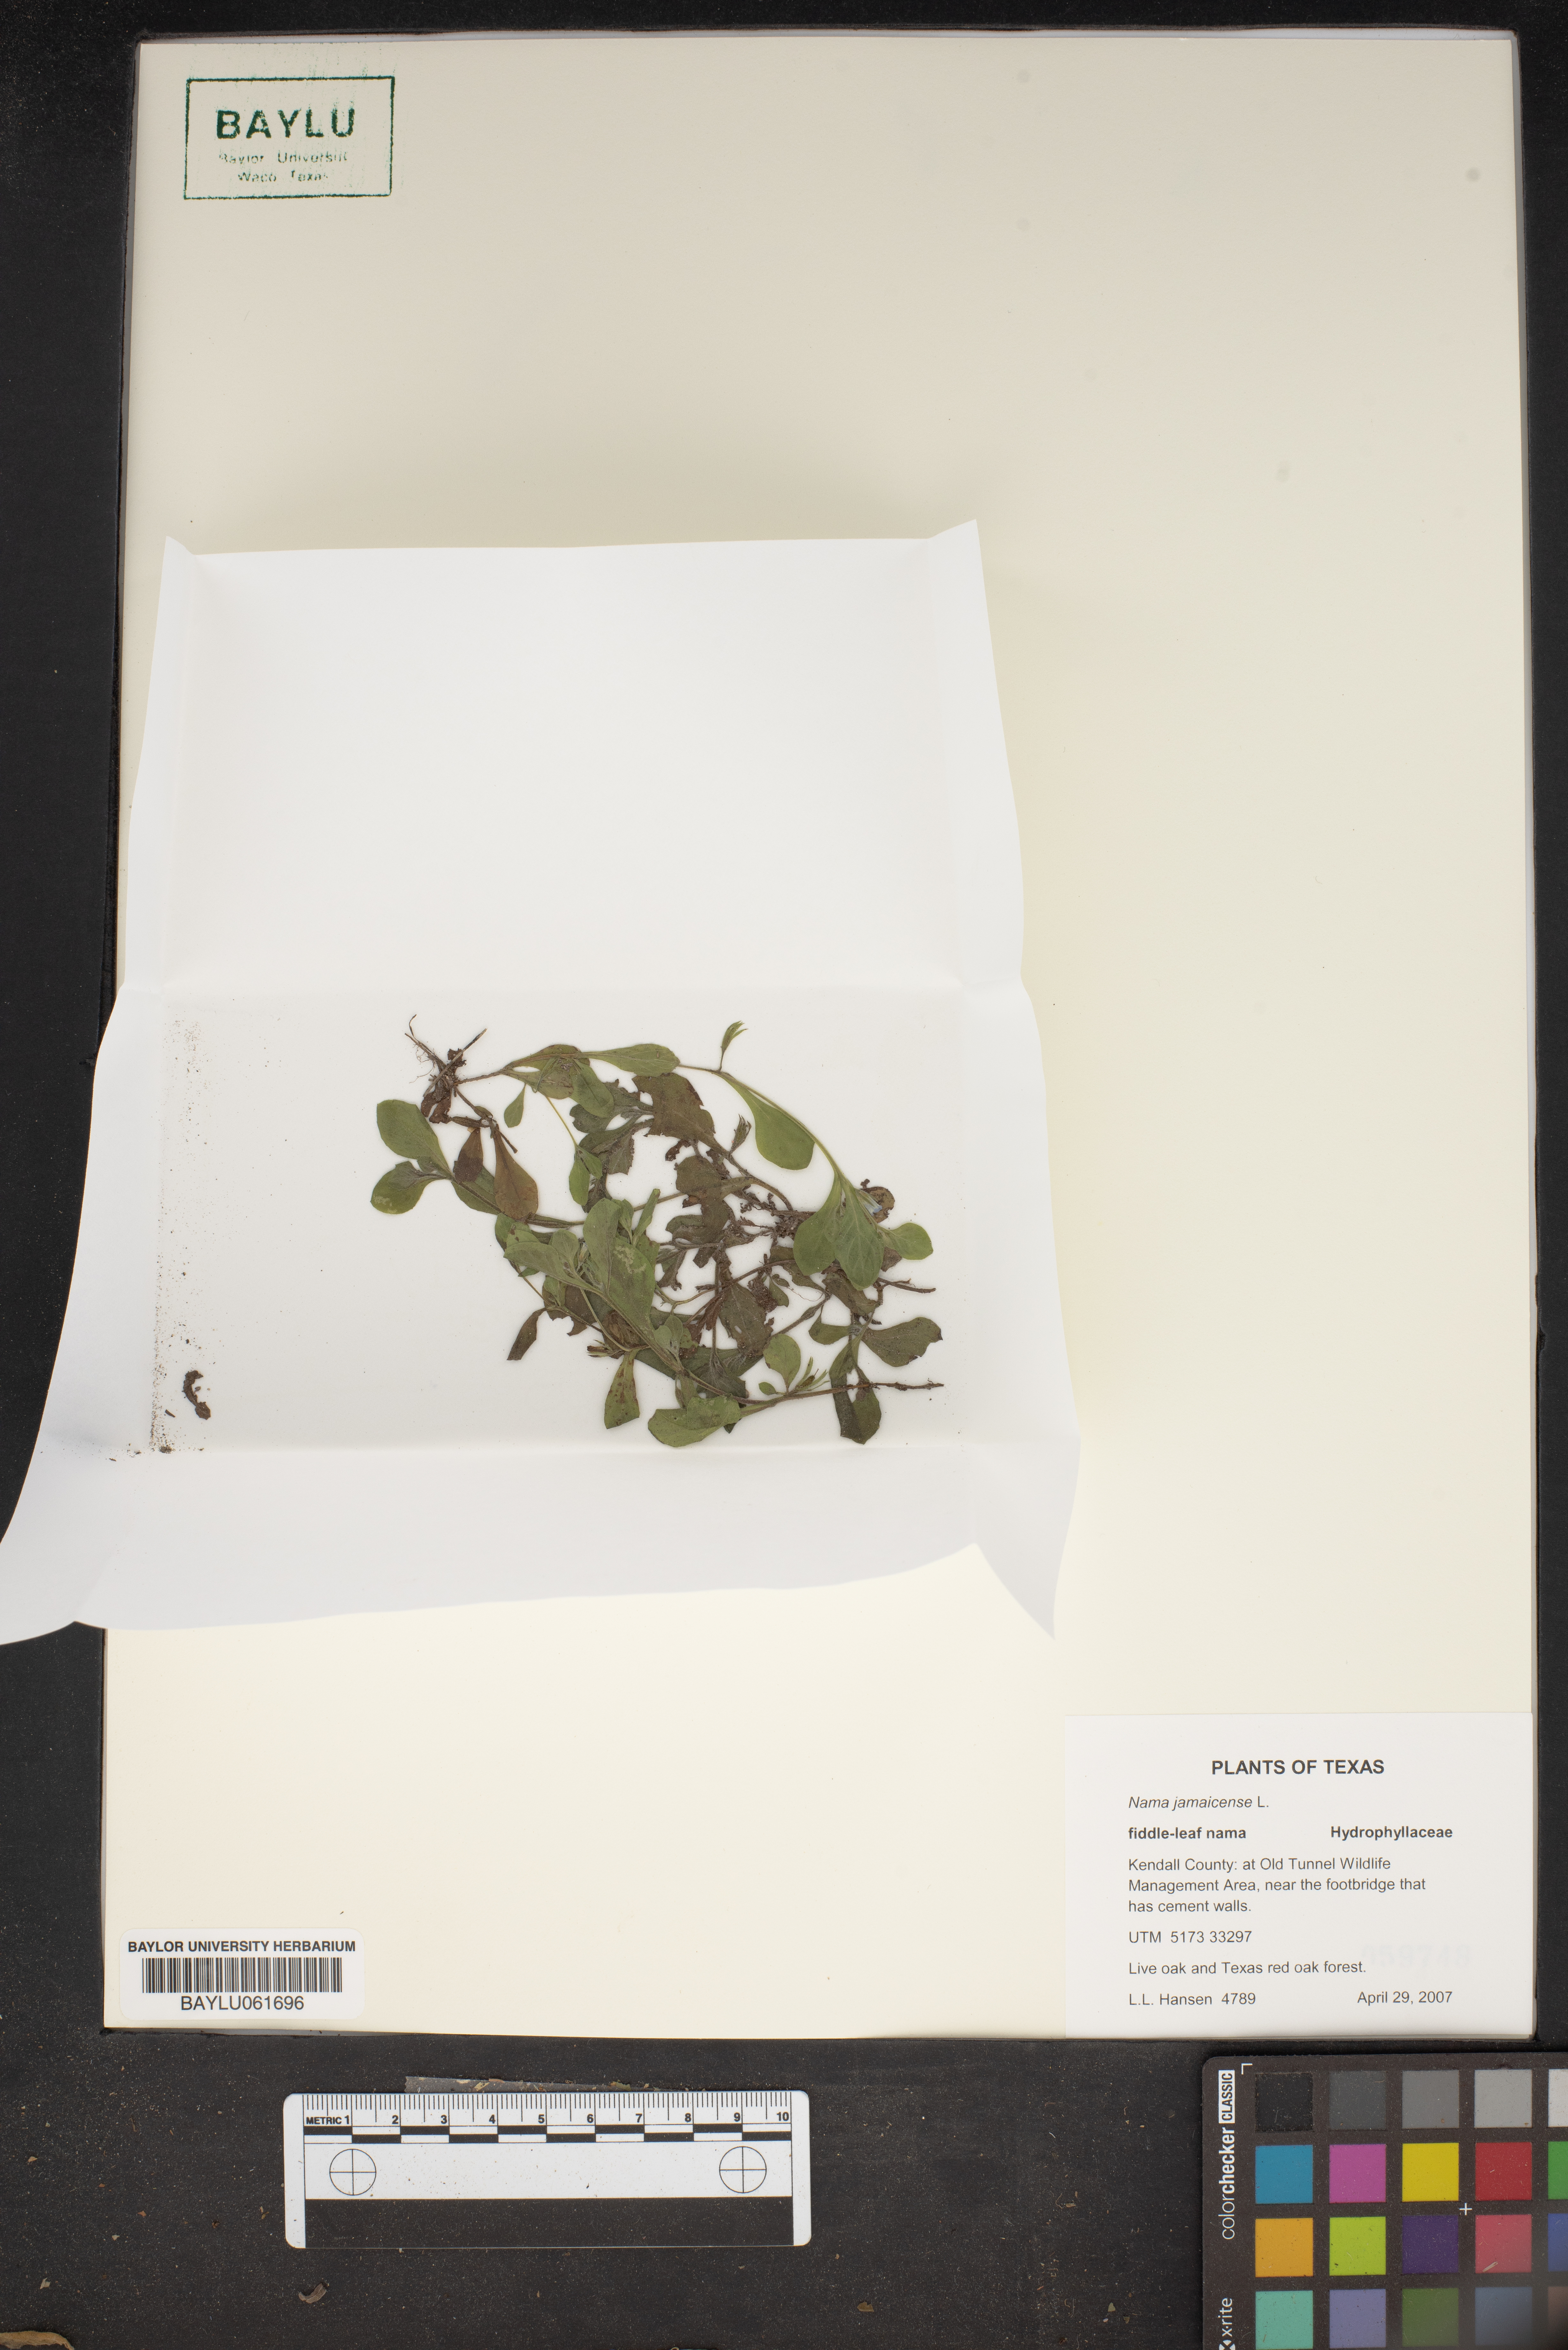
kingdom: Plantae
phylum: Tracheophyta
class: Magnoliopsida
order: Boraginales
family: Namaceae
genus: Nama
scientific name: Nama jamaicense
